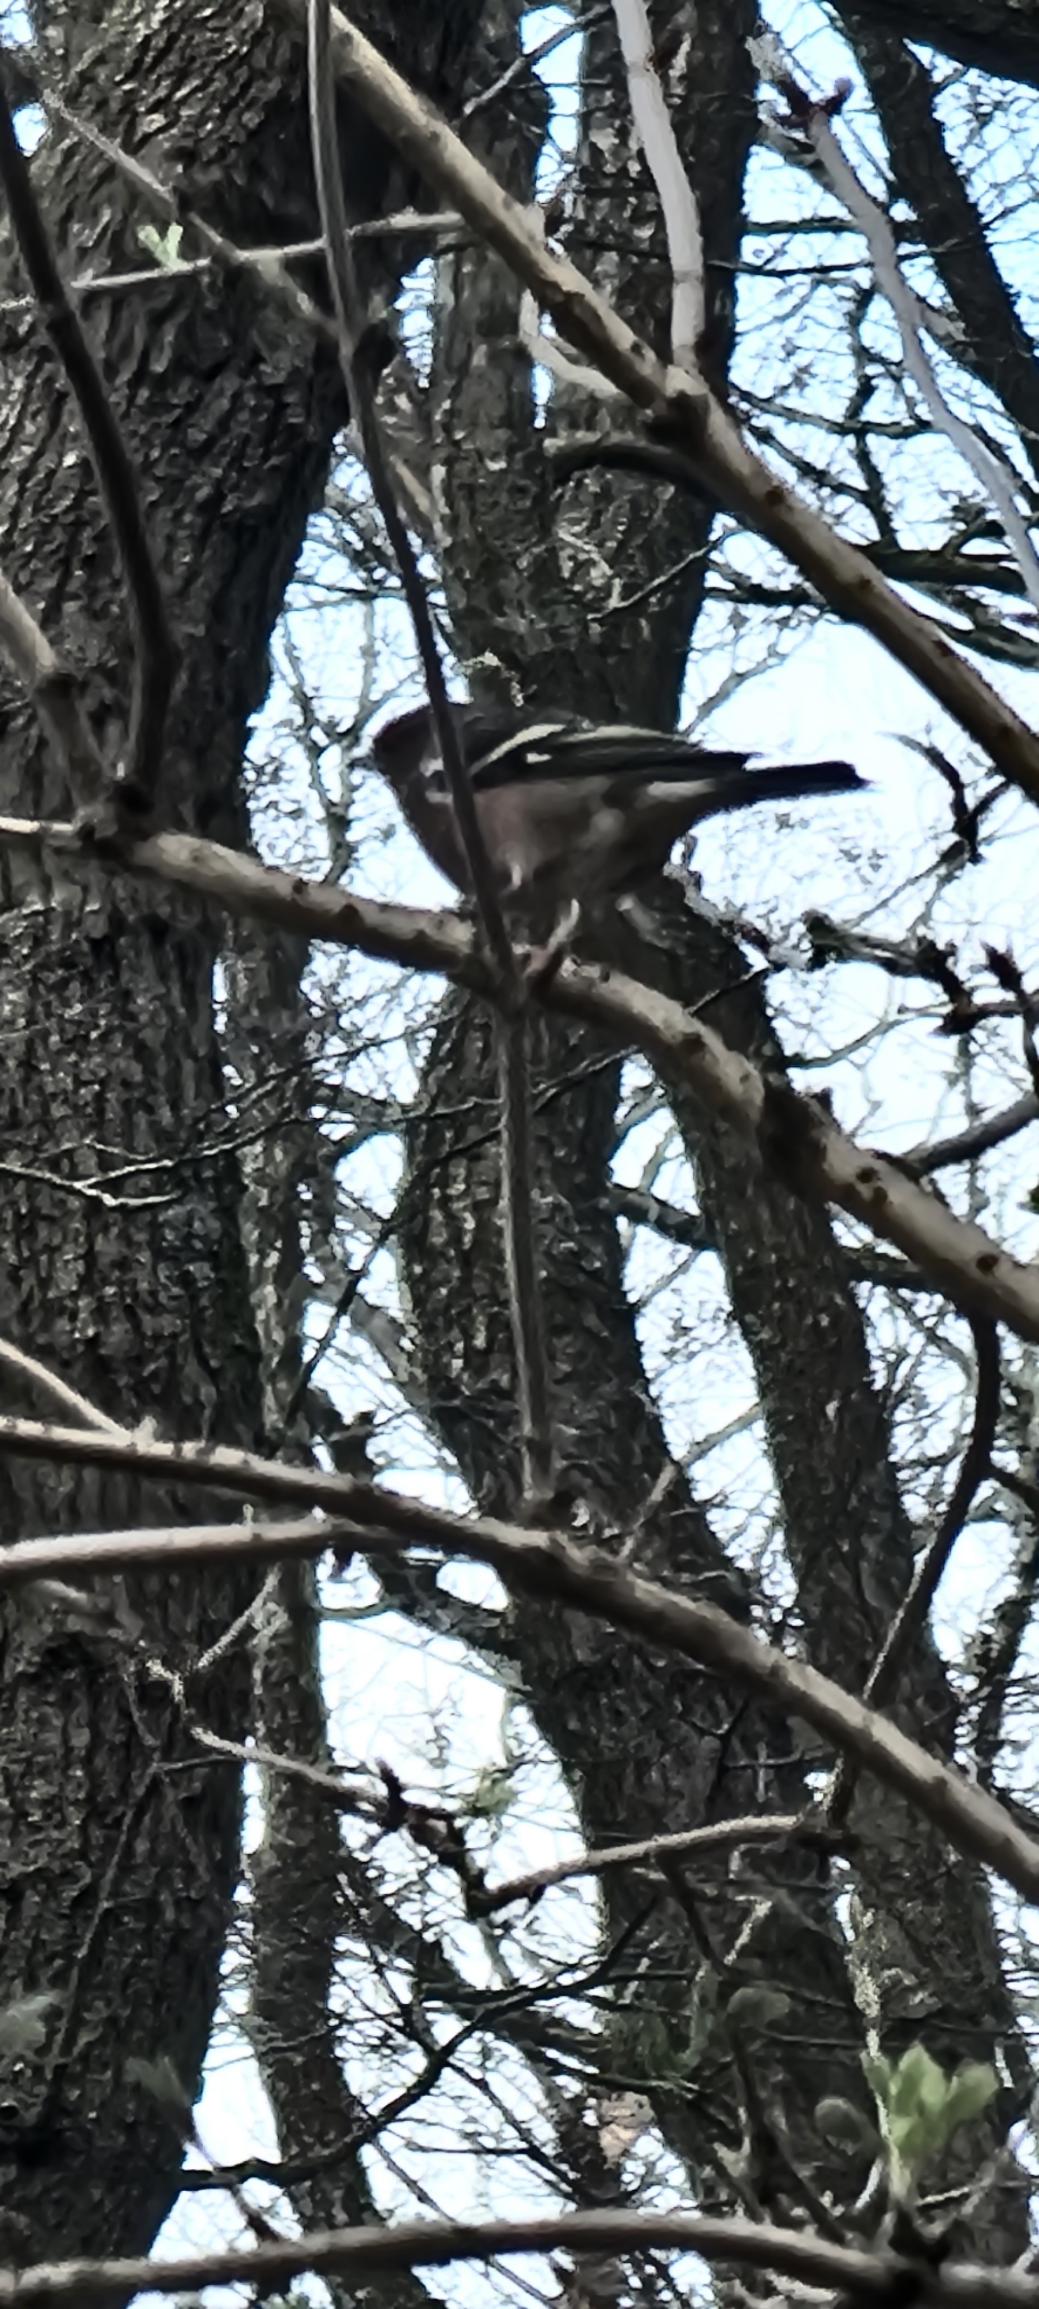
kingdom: Animalia
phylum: Chordata
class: Aves
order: Passeriformes
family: Fringillidae
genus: Fringilla
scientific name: Fringilla coelebs
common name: Bogfinke
